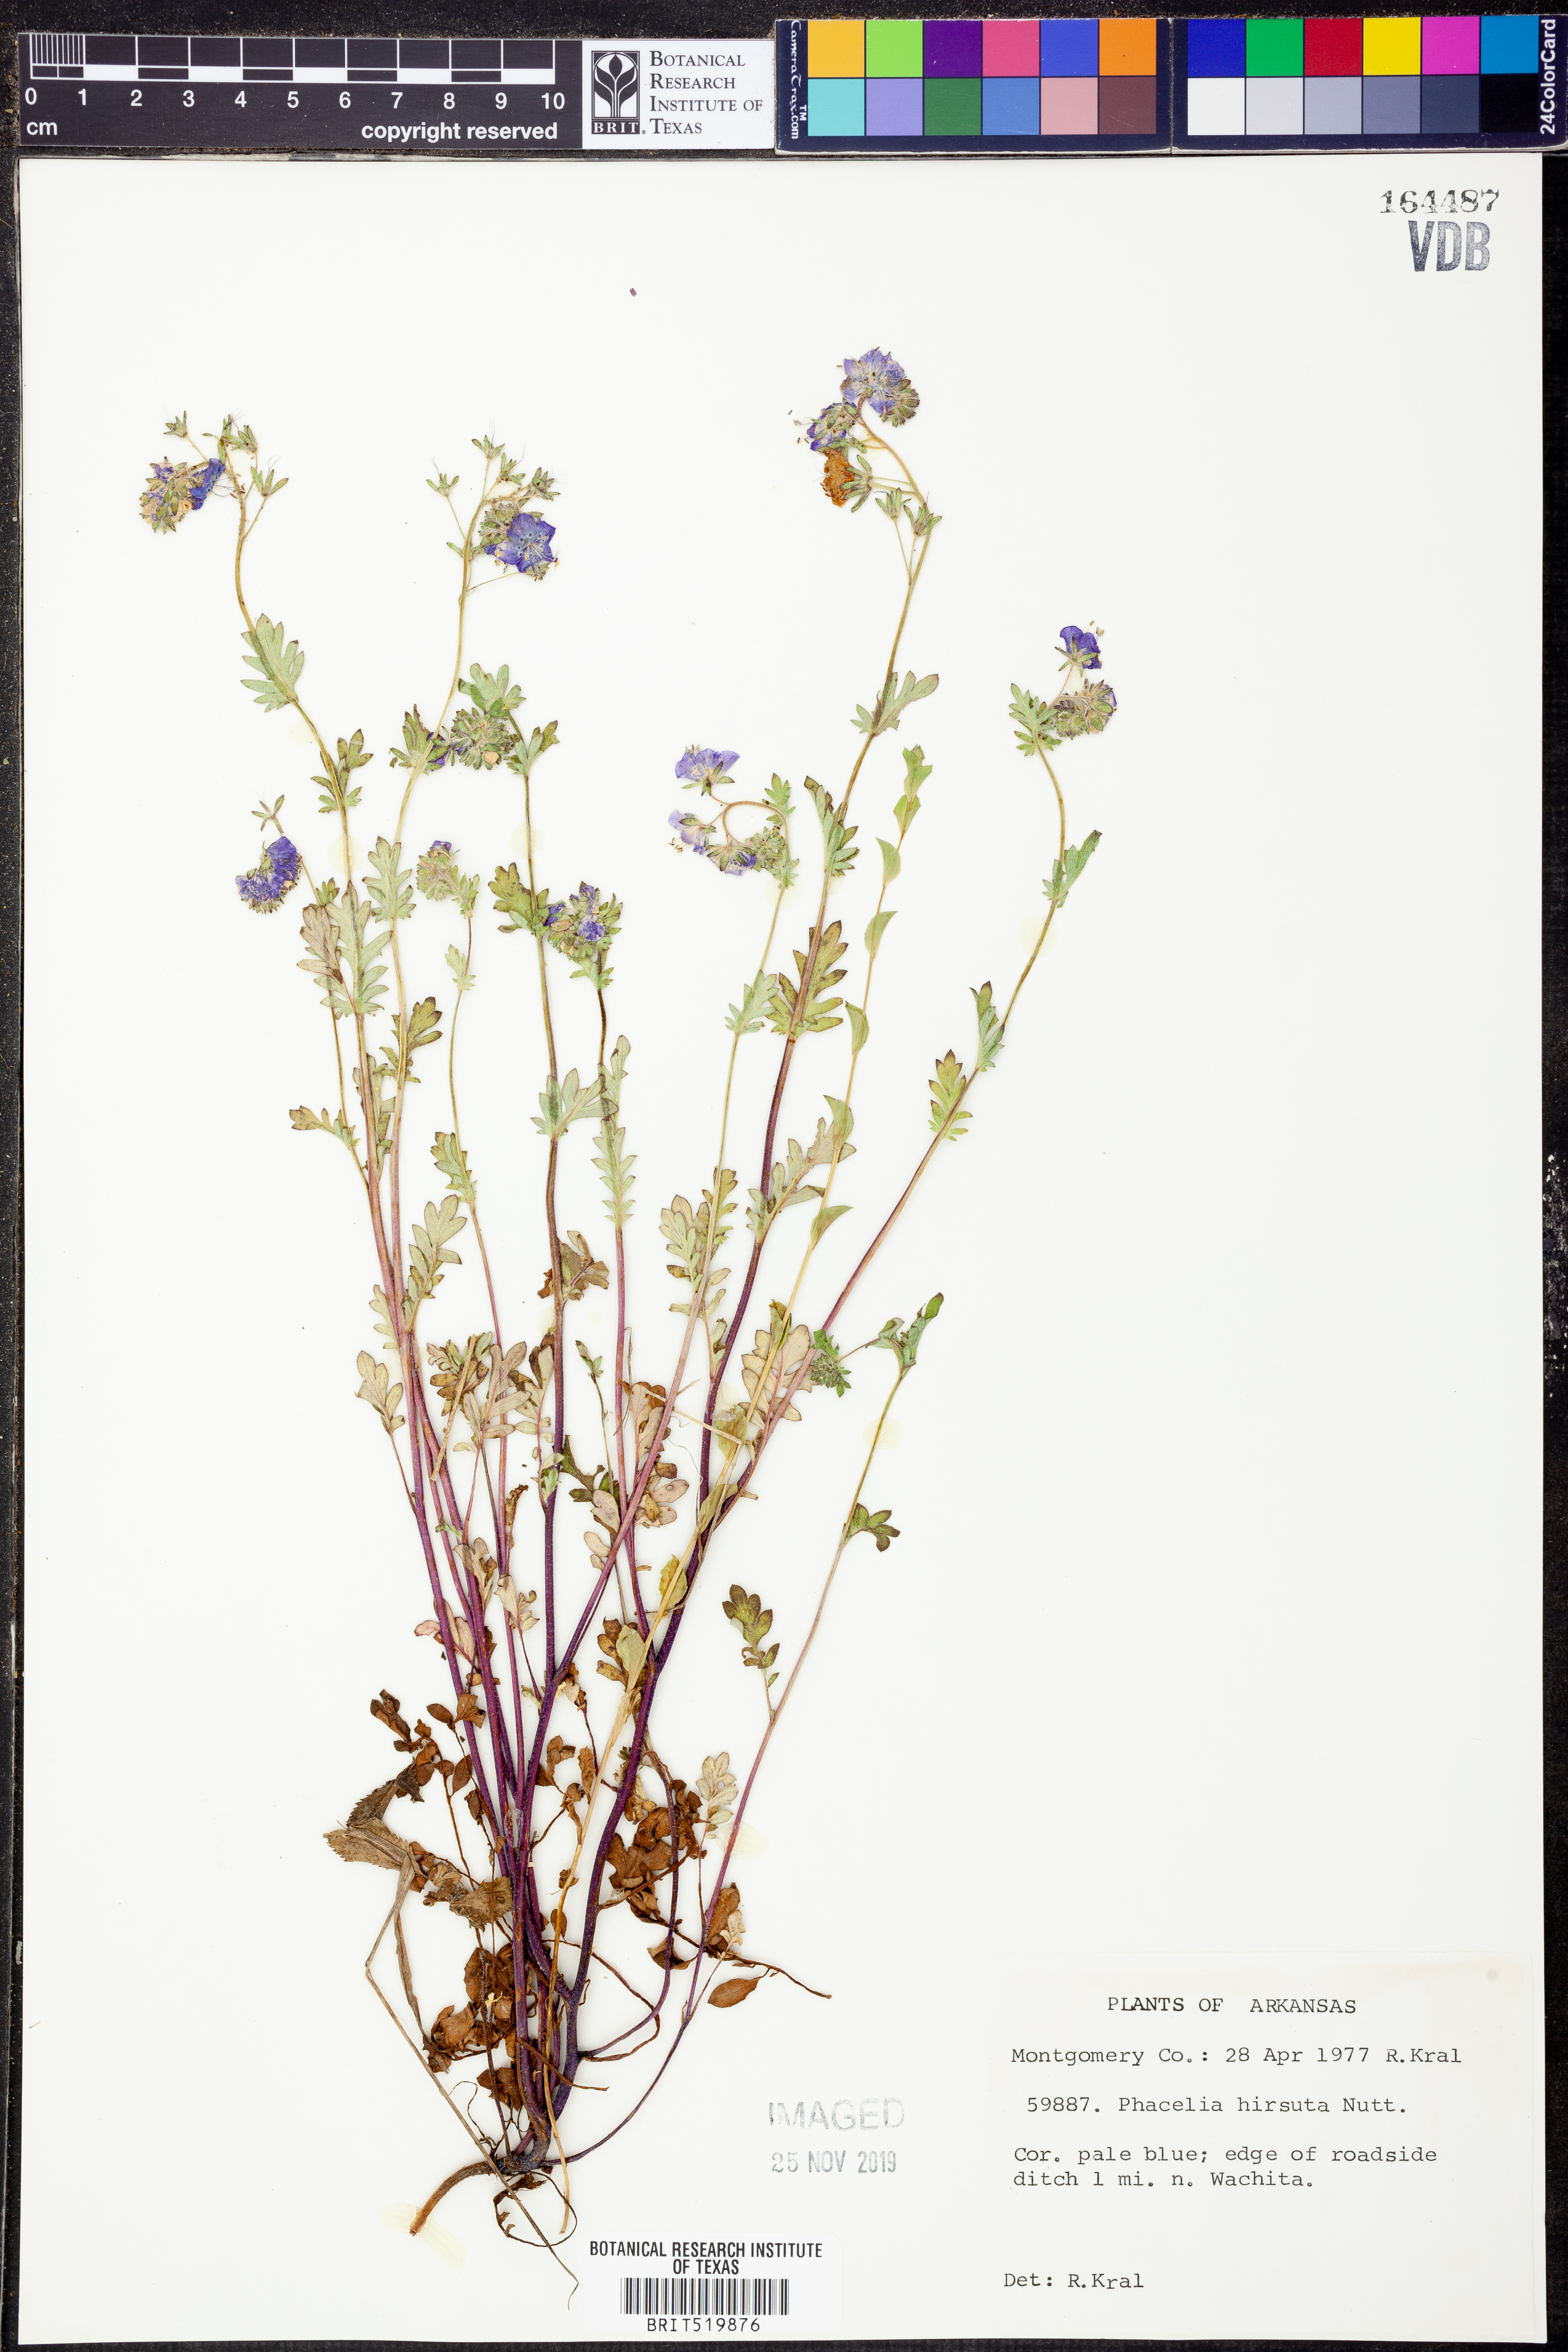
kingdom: Plantae
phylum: Tracheophyta
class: Magnoliopsida
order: Boraginales
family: Hydrophyllaceae
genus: Phacelia
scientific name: Phacelia hirsuta
